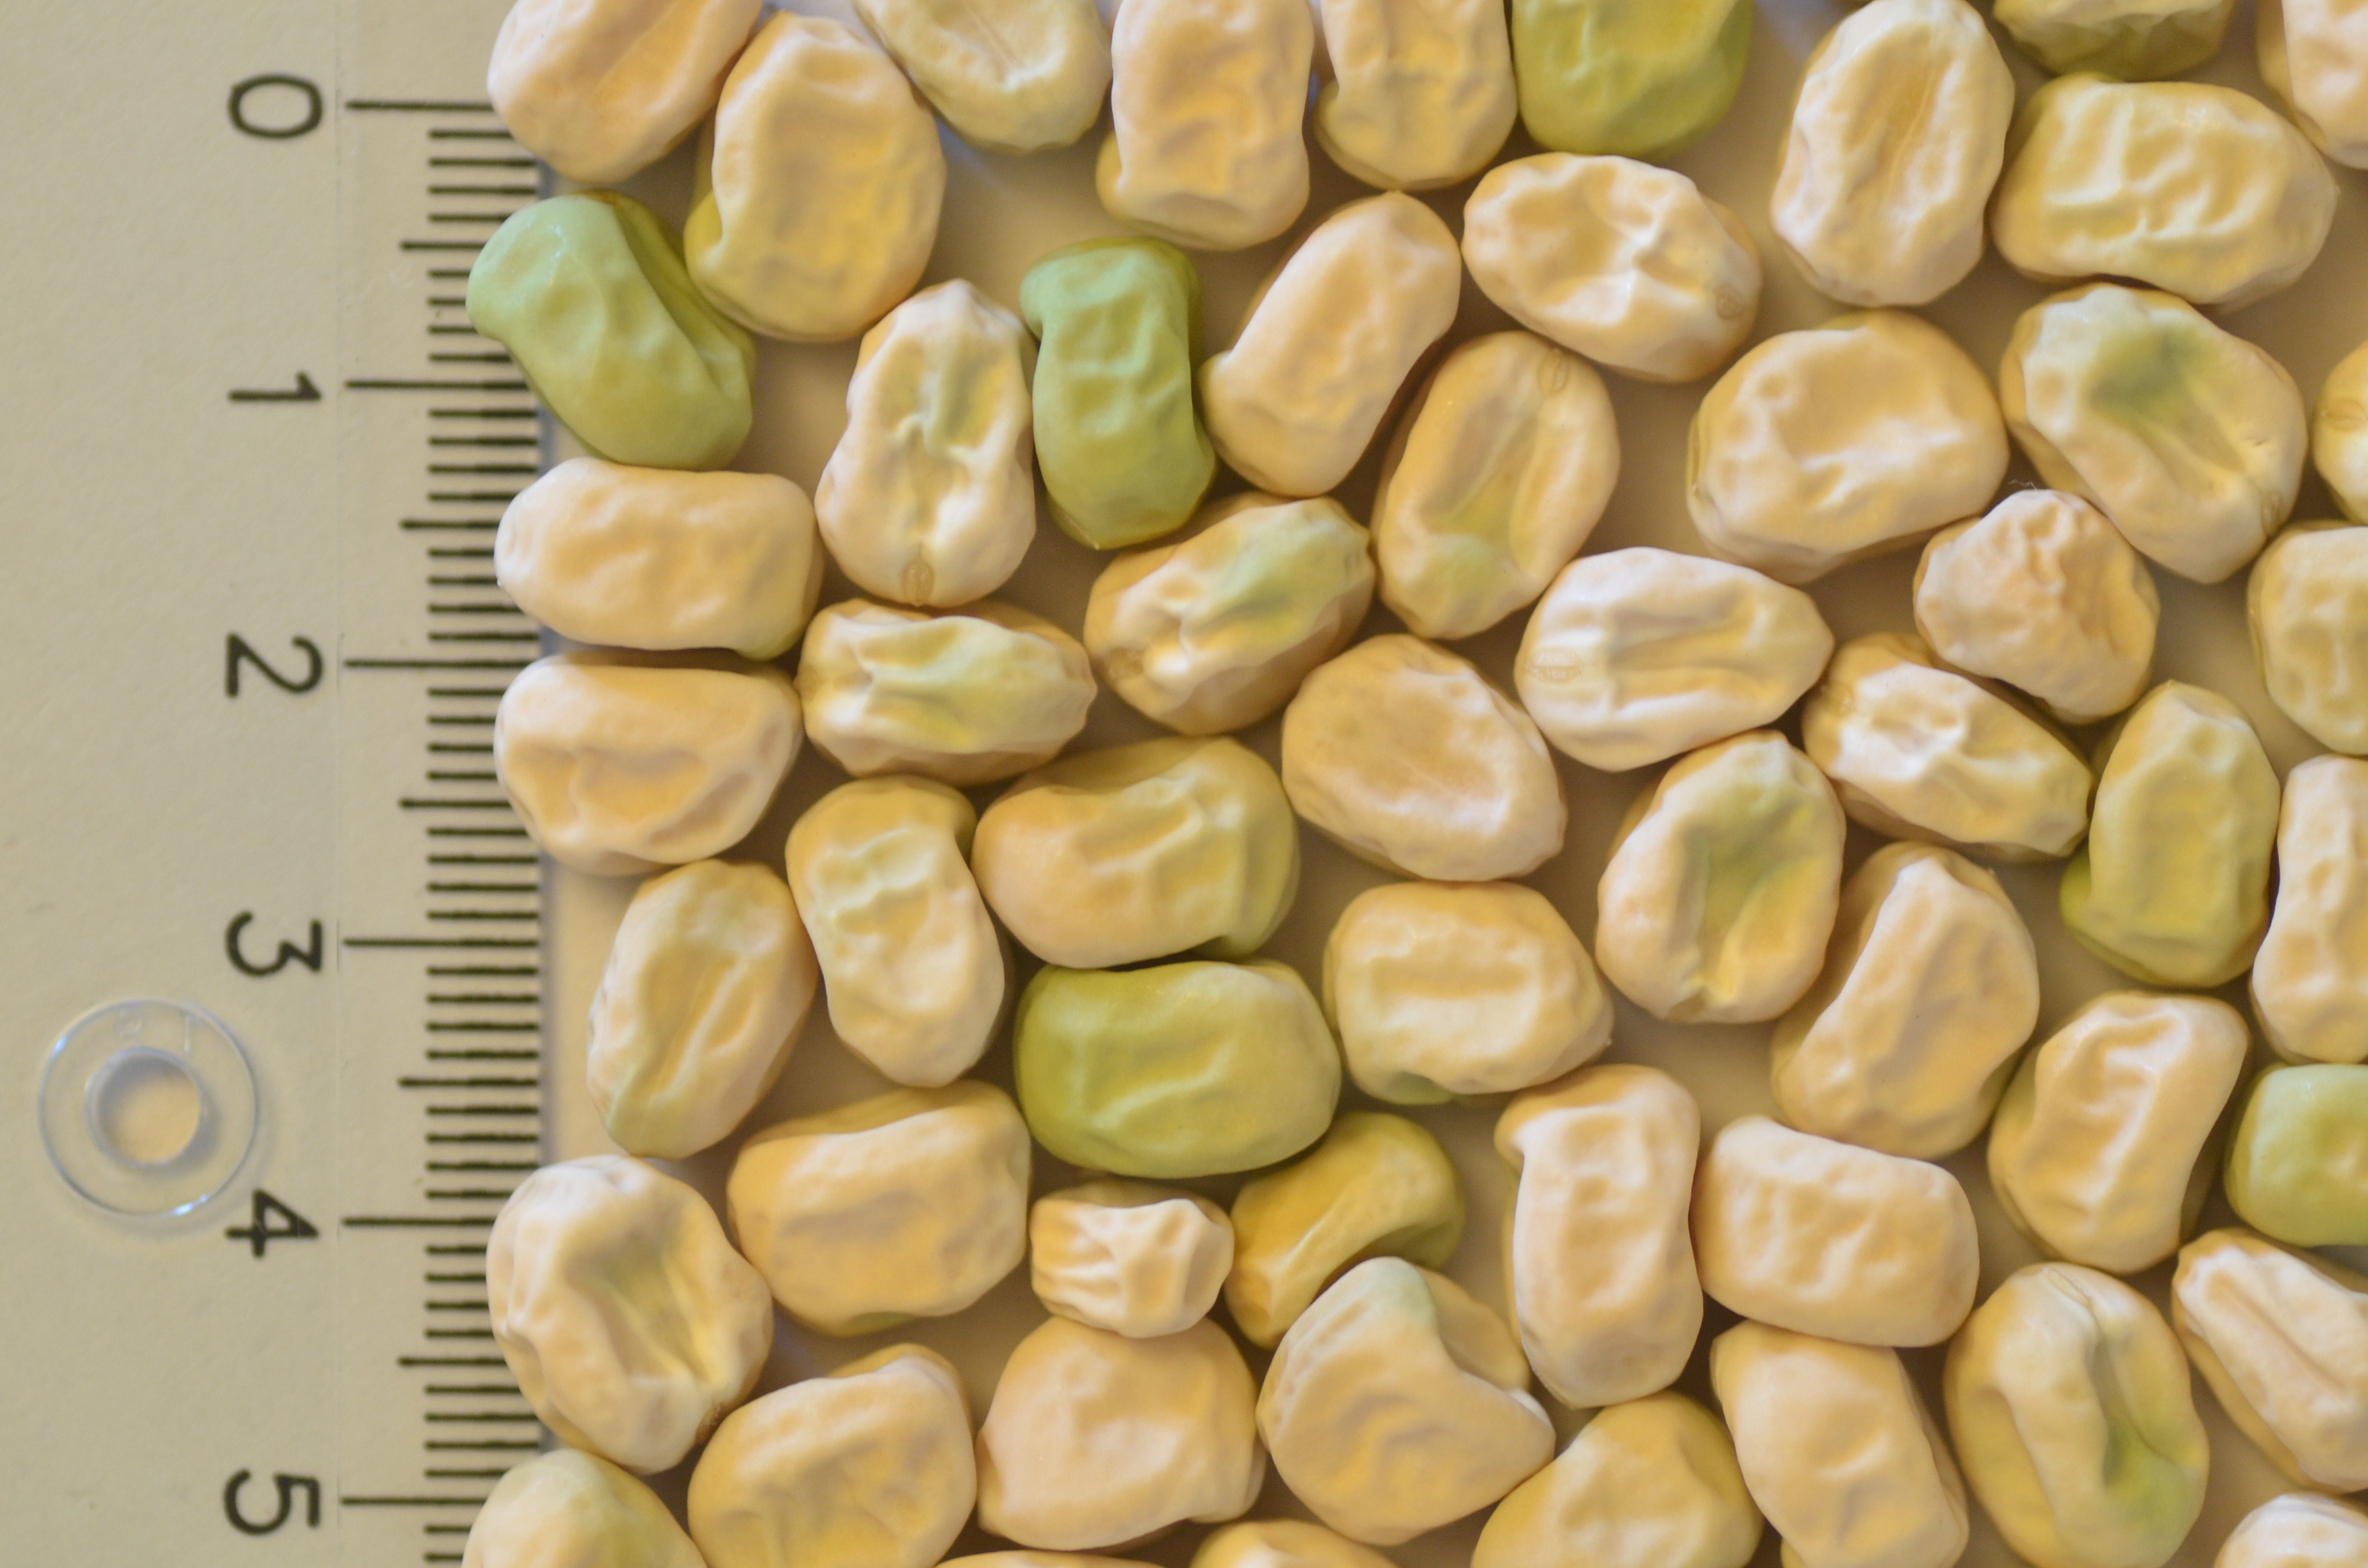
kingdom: Plantae
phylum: Tracheophyta
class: Magnoliopsida
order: Fabales
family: Fabaceae
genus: Lathyrus
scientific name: Lathyrus oleraceus
